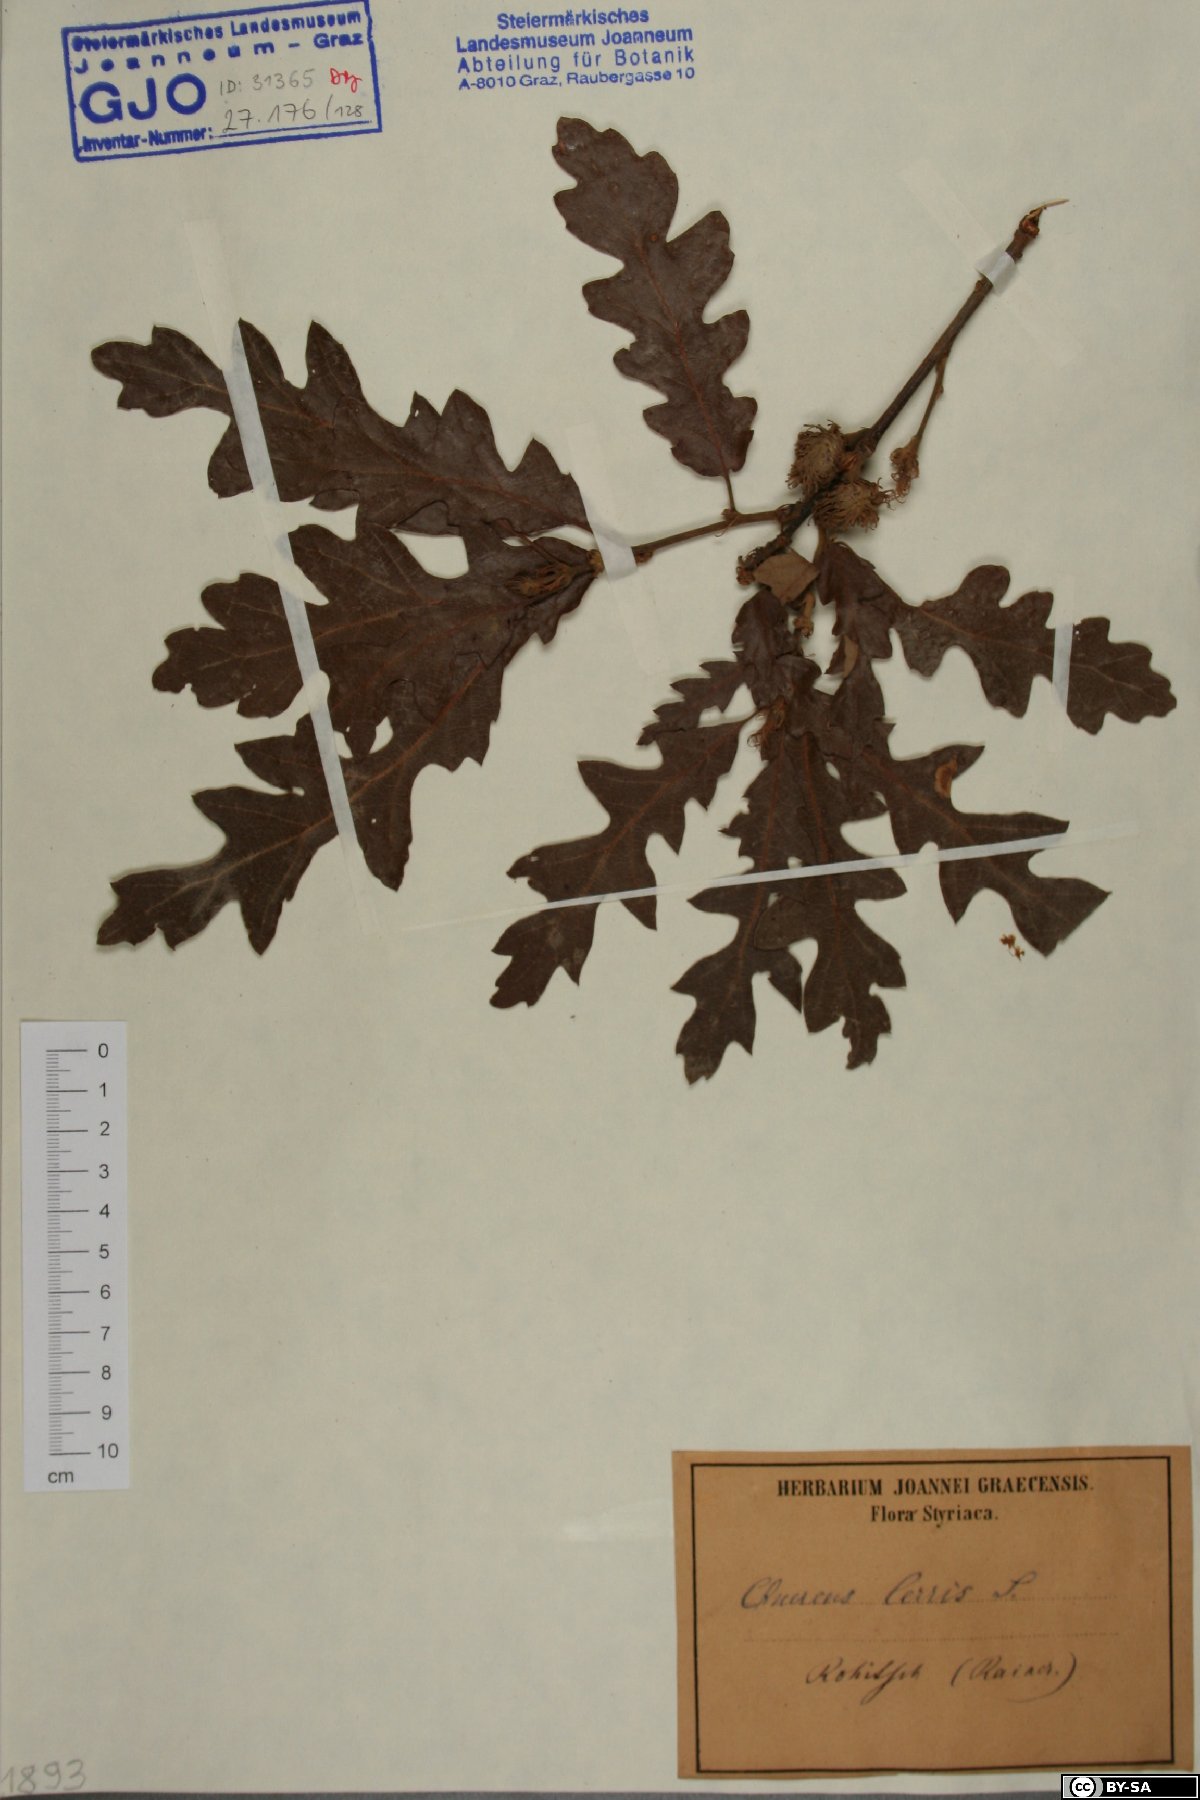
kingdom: Plantae
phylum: Tracheophyta
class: Magnoliopsida
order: Fagales
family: Fagaceae
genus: Quercus
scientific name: Quercus cerris
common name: Turkey oak
